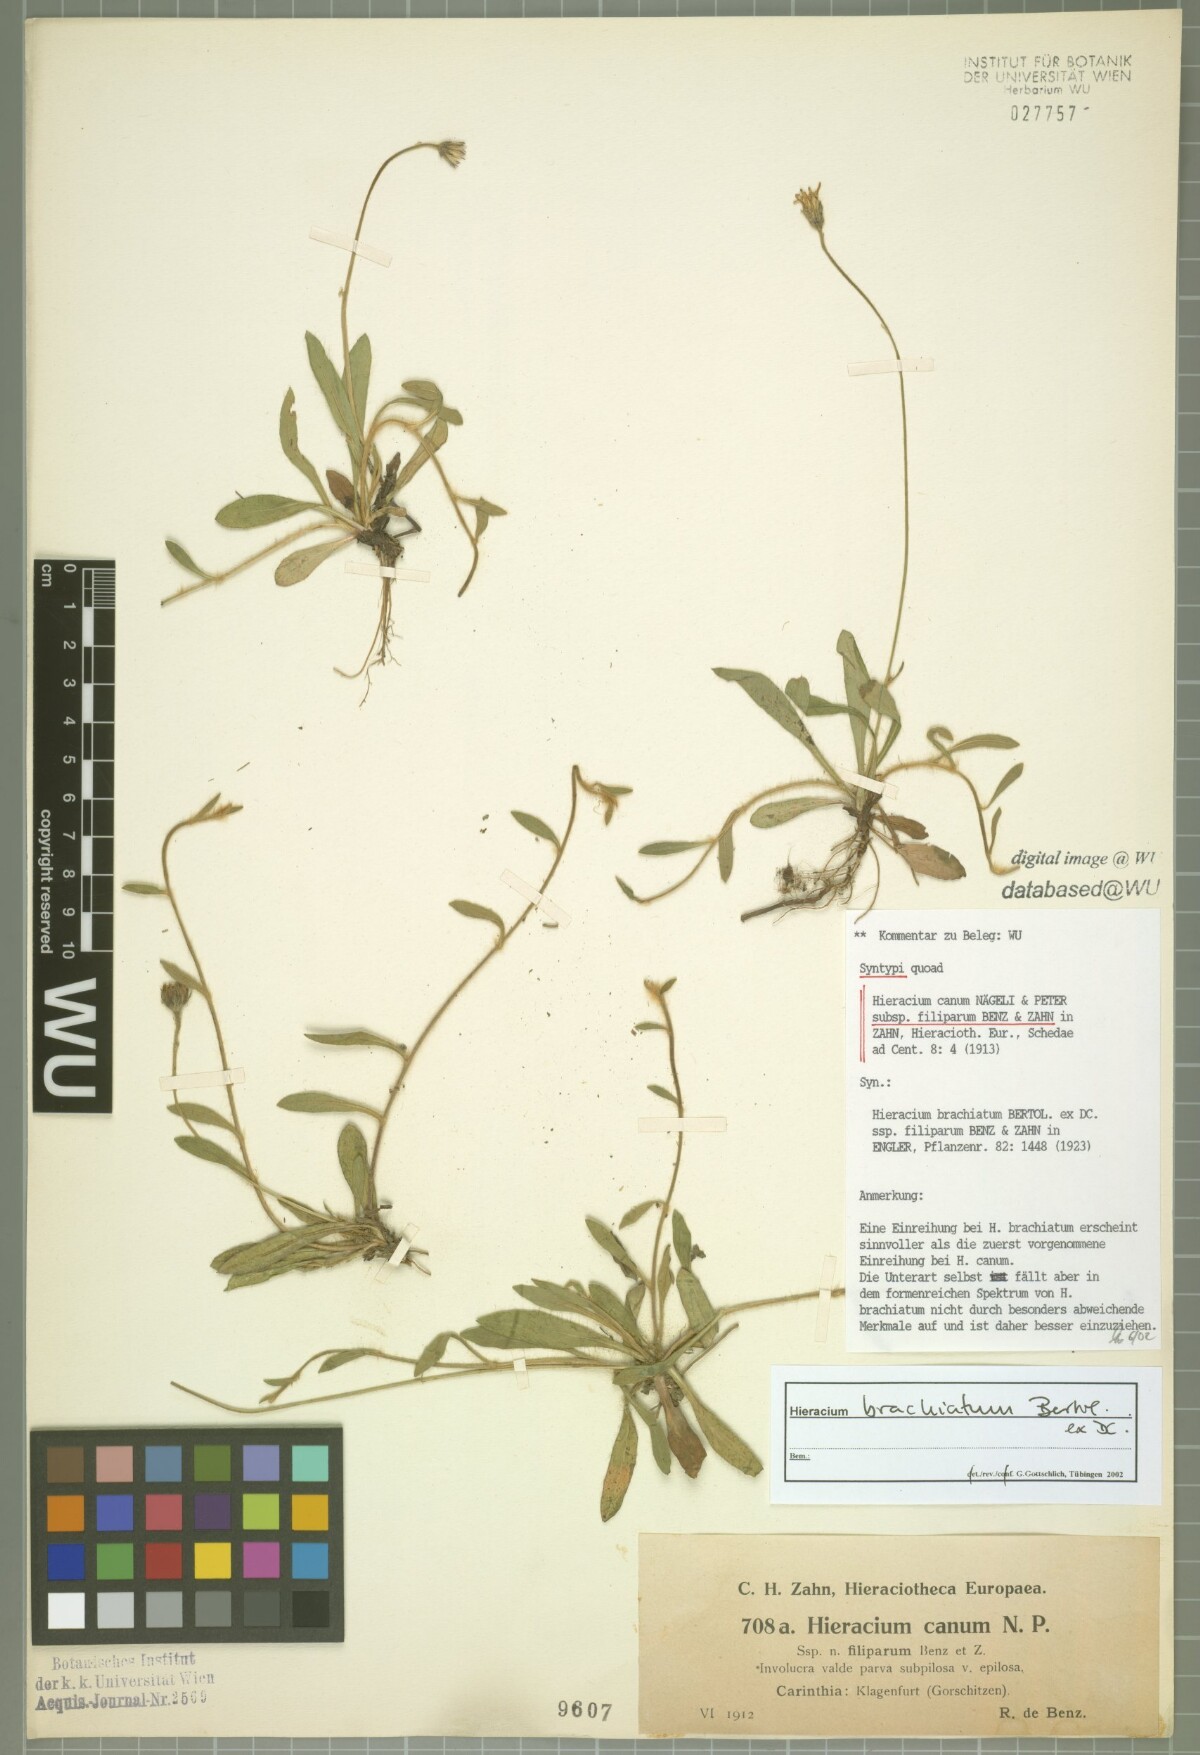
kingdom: Plantae
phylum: Tracheophyta
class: Magnoliopsida
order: Asterales
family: Asteraceae
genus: Pilosella
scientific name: Pilosella acutifolia
